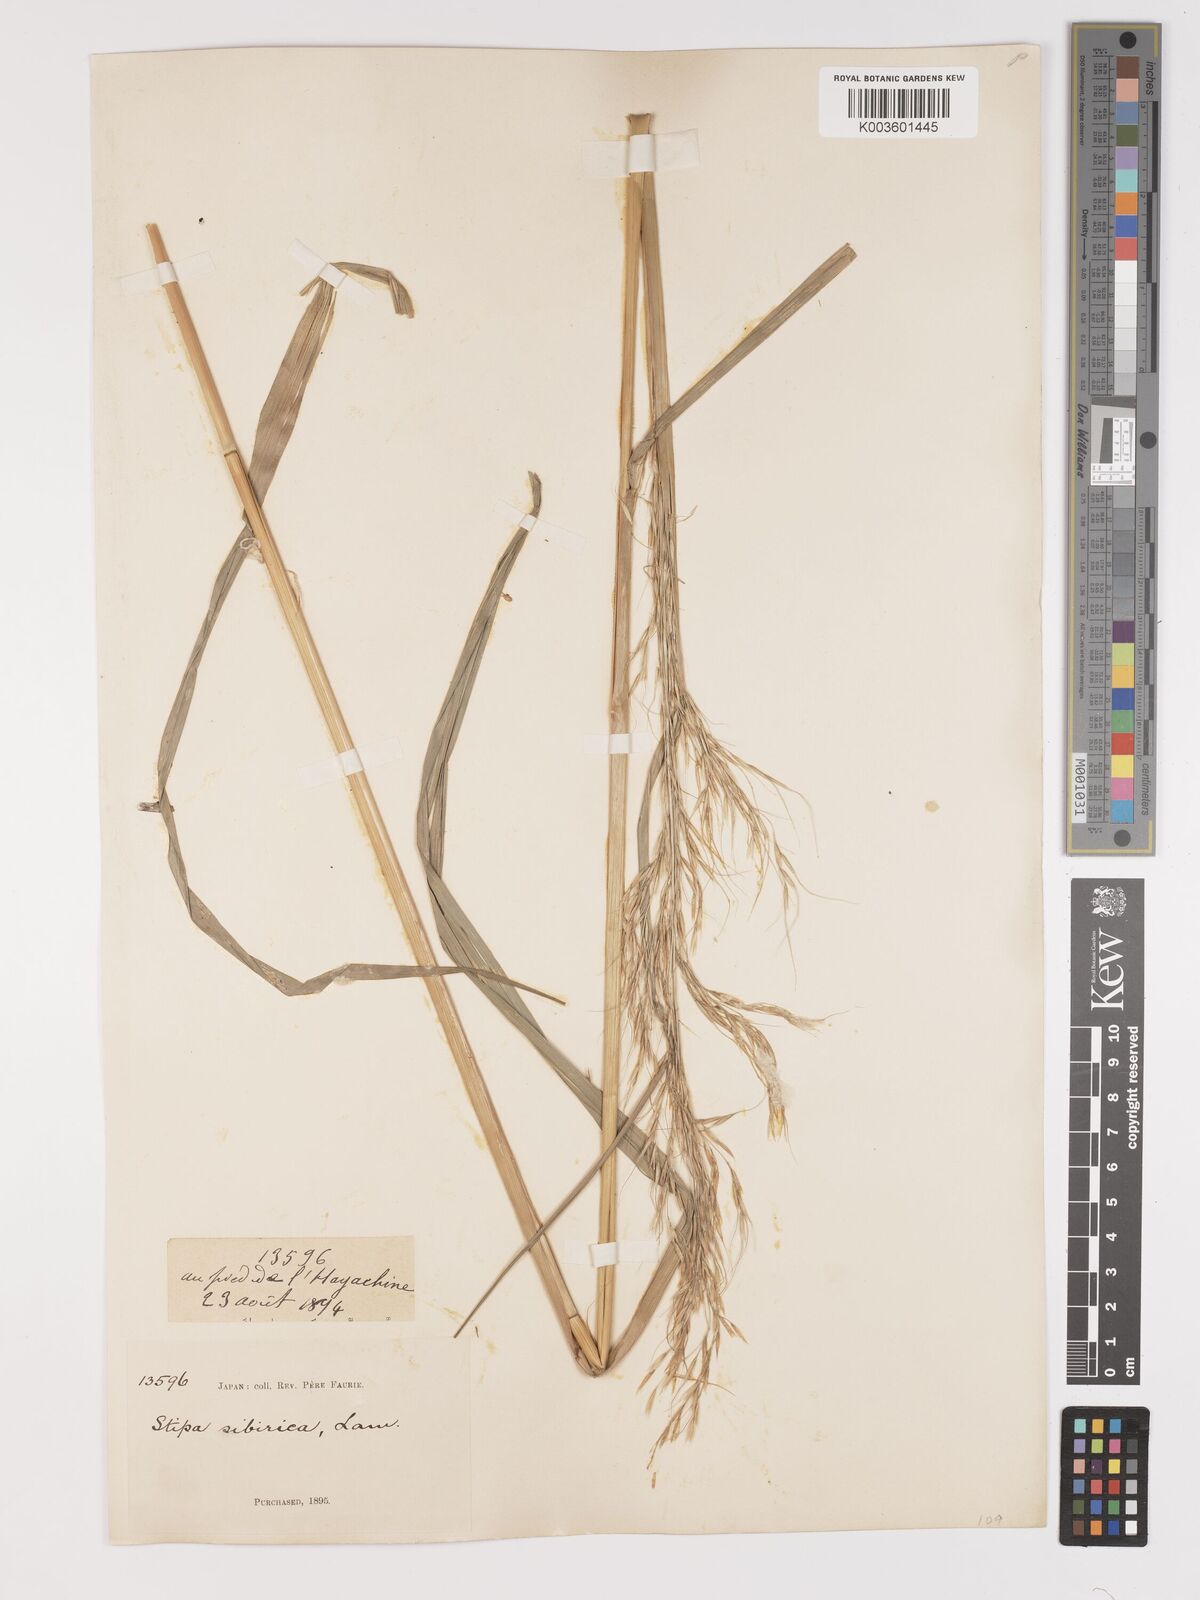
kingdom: Plantae
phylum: Tracheophyta
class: Liliopsida
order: Poales
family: Poaceae
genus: Achnatherum
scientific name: Achnatherum pekinense
